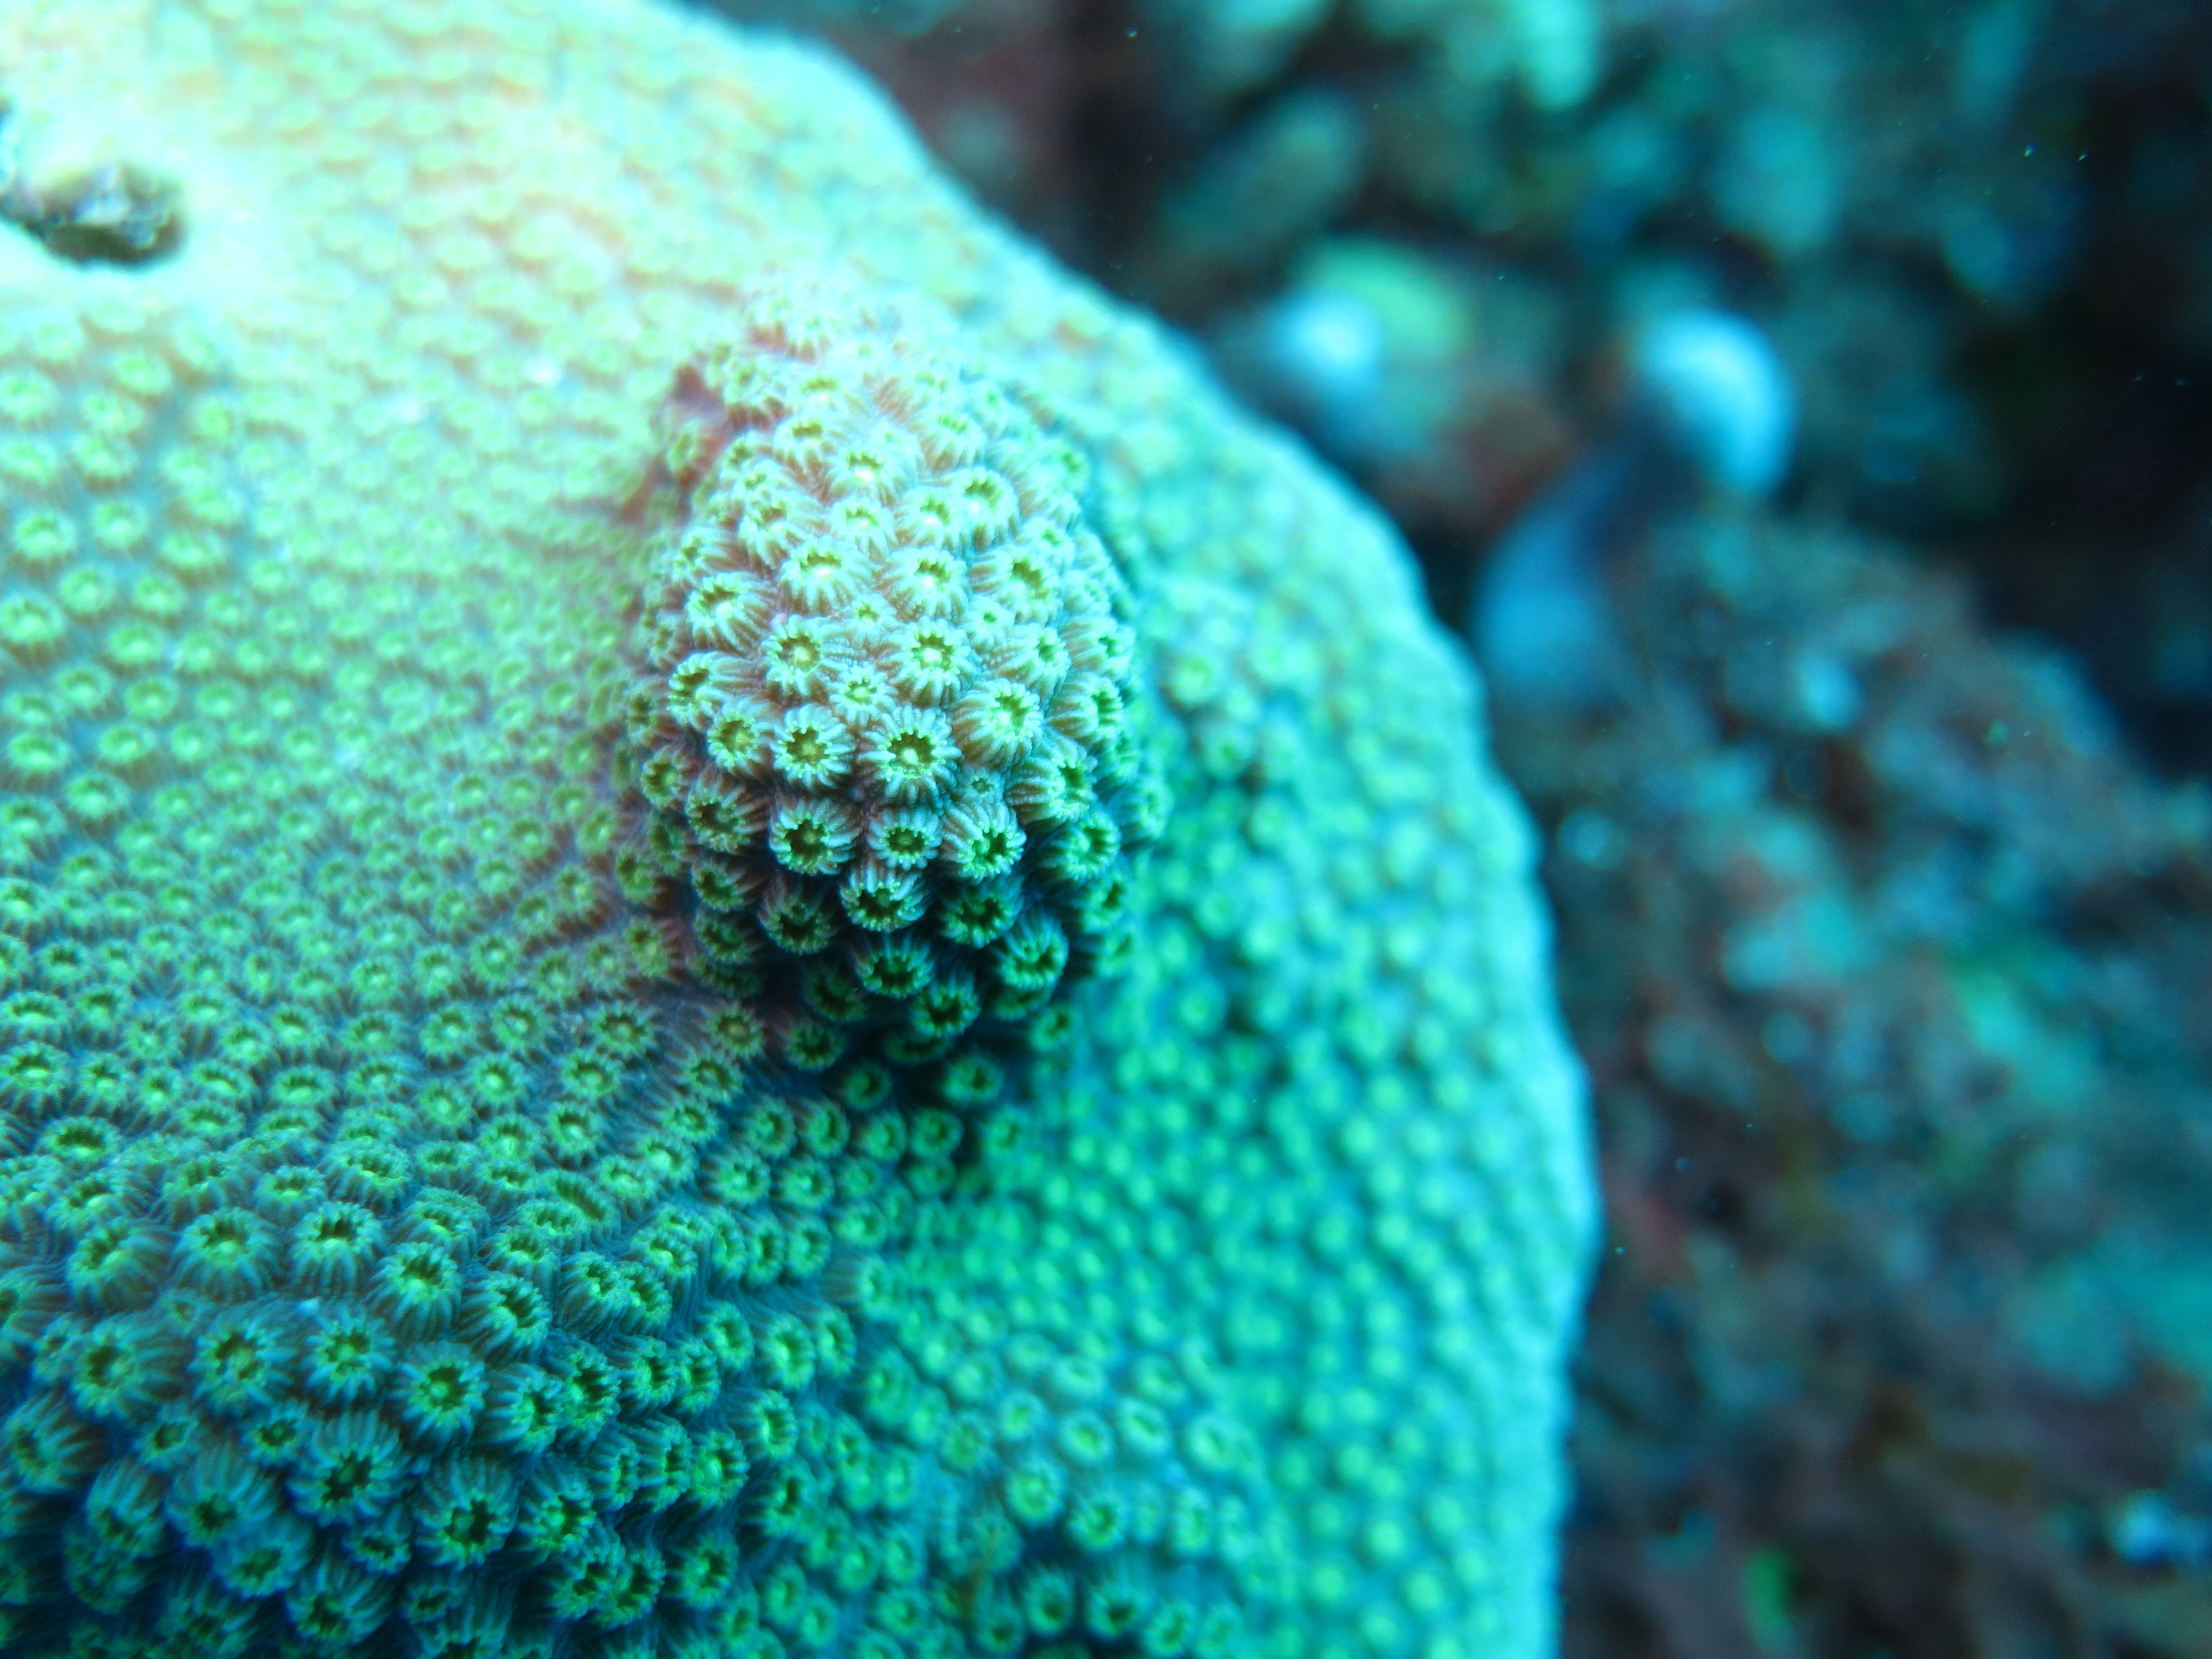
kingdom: Animalia
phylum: Cnidaria
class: Anthozoa
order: Scleractinia
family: Merulinidae
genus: Orbicella
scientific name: Orbicella faveolata
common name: Mountainous star coral
